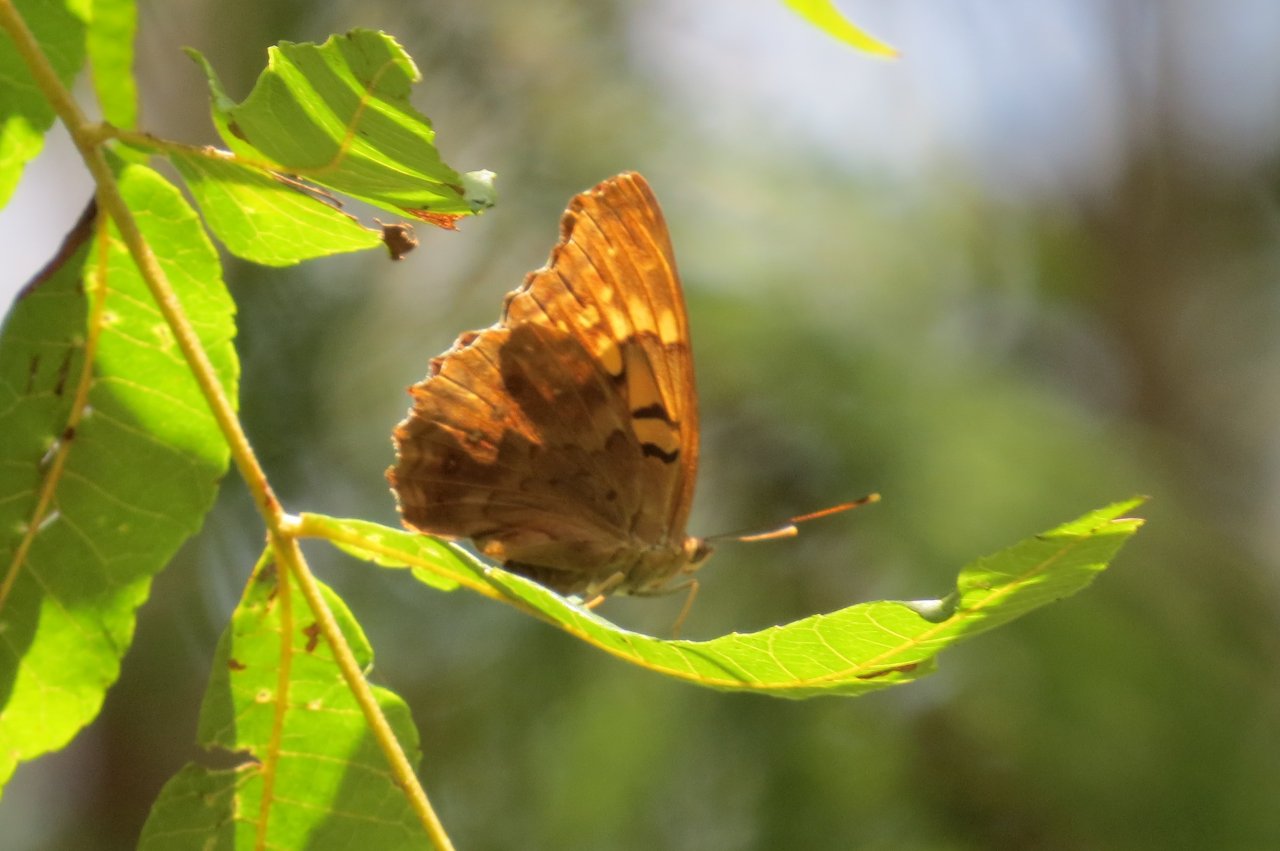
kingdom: Animalia
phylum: Arthropoda
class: Insecta
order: Lepidoptera
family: Nymphalidae
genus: Asterocampa
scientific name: Asterocampa clyton
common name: Tawny Emperor
